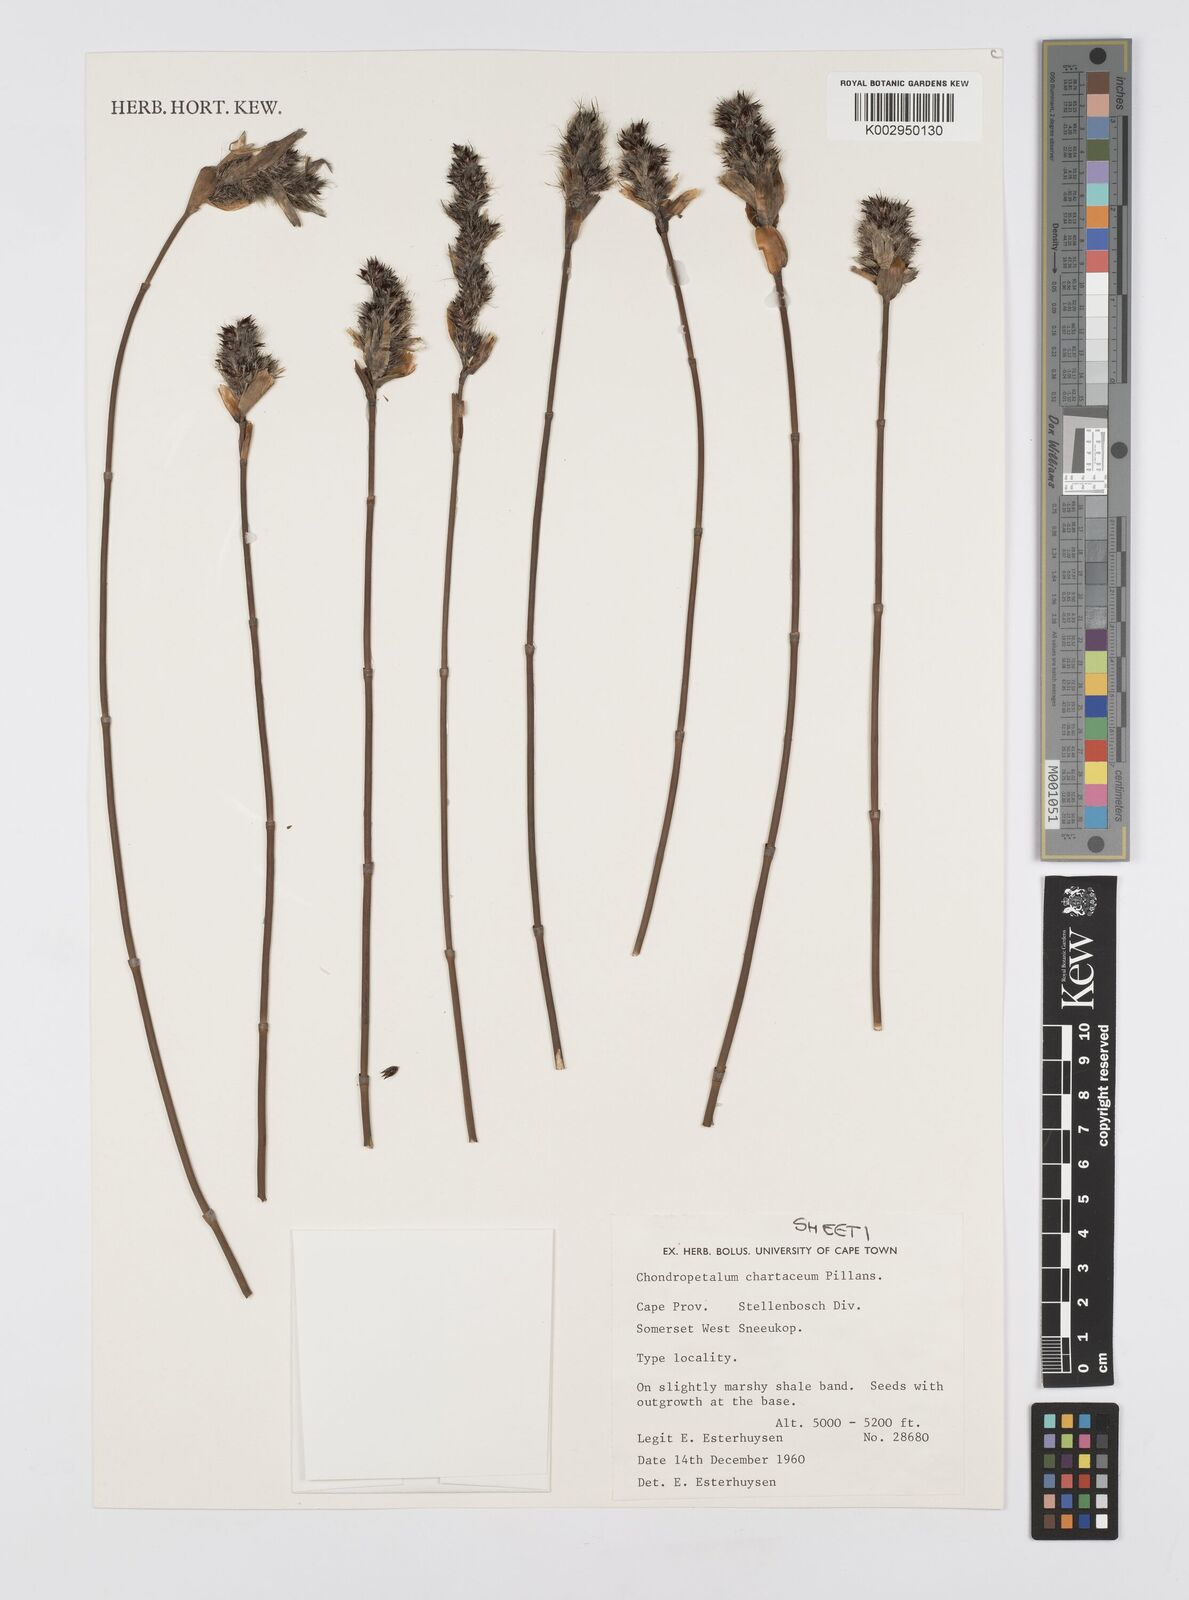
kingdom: Plantae
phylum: Tracheophyta
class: Liliopsida
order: Poales
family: Restionaceae
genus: Askidiosperma
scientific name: Askidiosperma chartaceum
